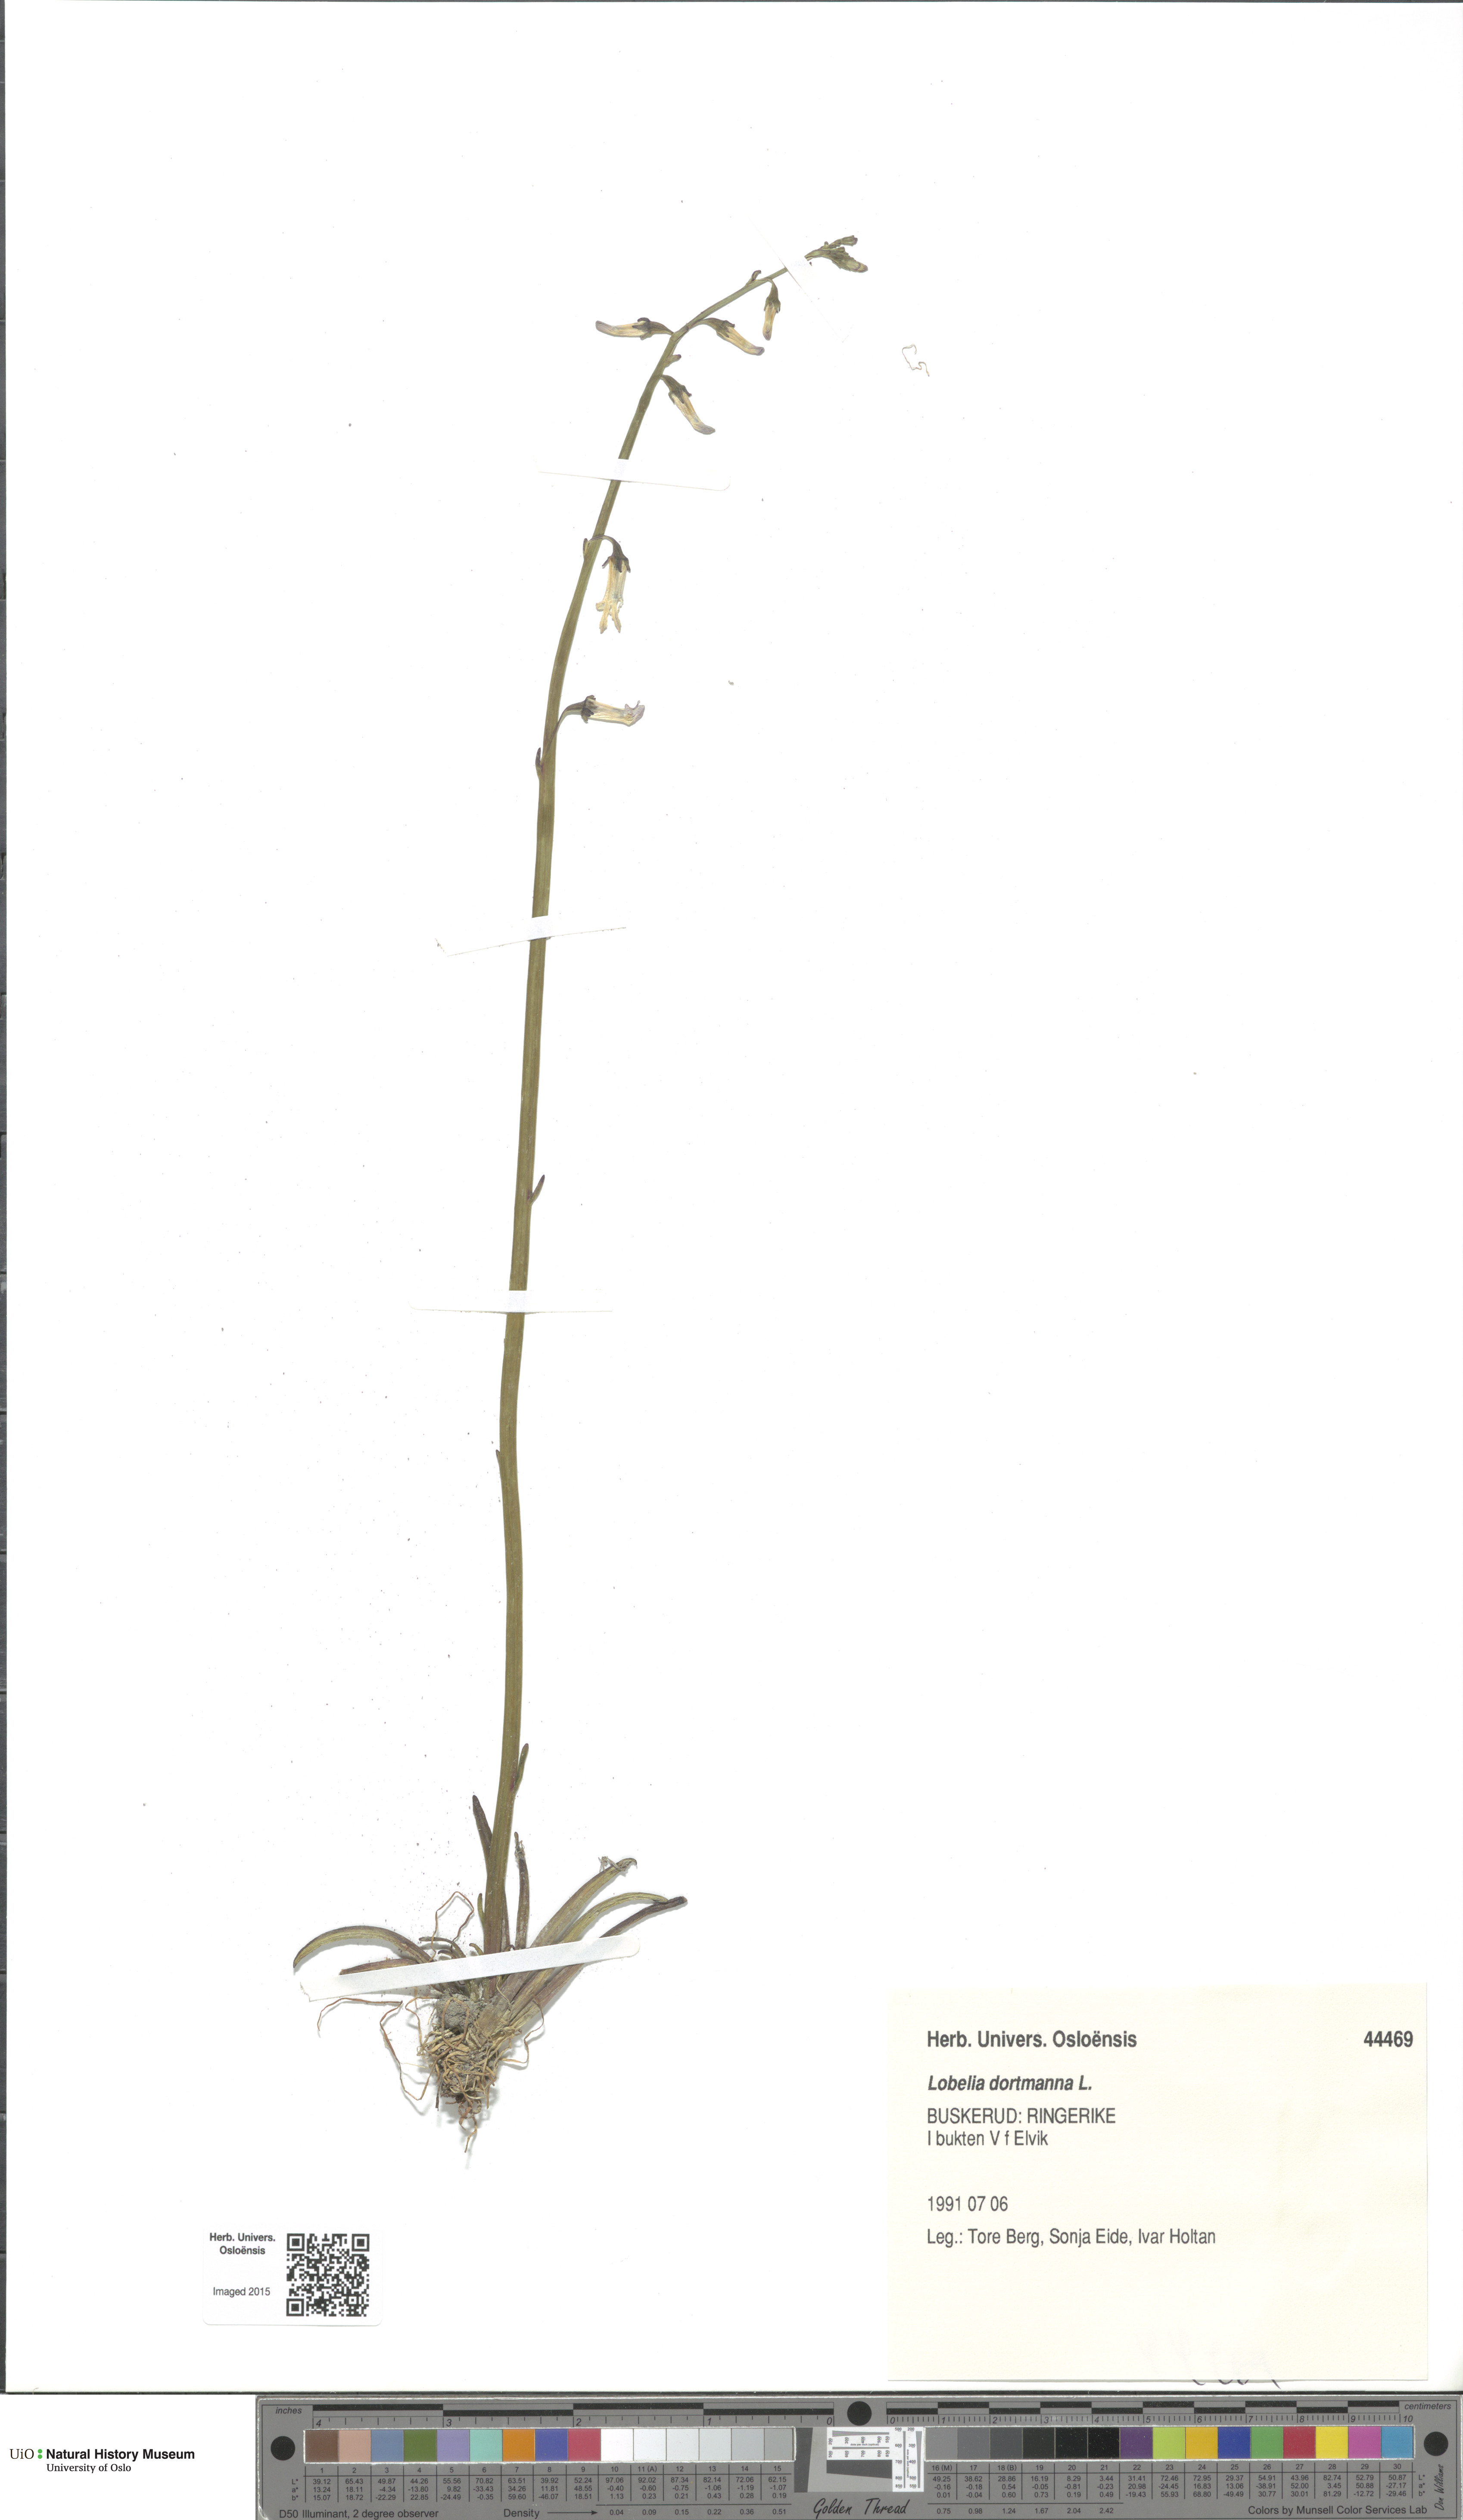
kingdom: Plantae
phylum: Tracheophyta
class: Magnoliopsida
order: Asterales
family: Campanulaceae
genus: Lobelia
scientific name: Lobelia dortmanna
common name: Water lobelia
